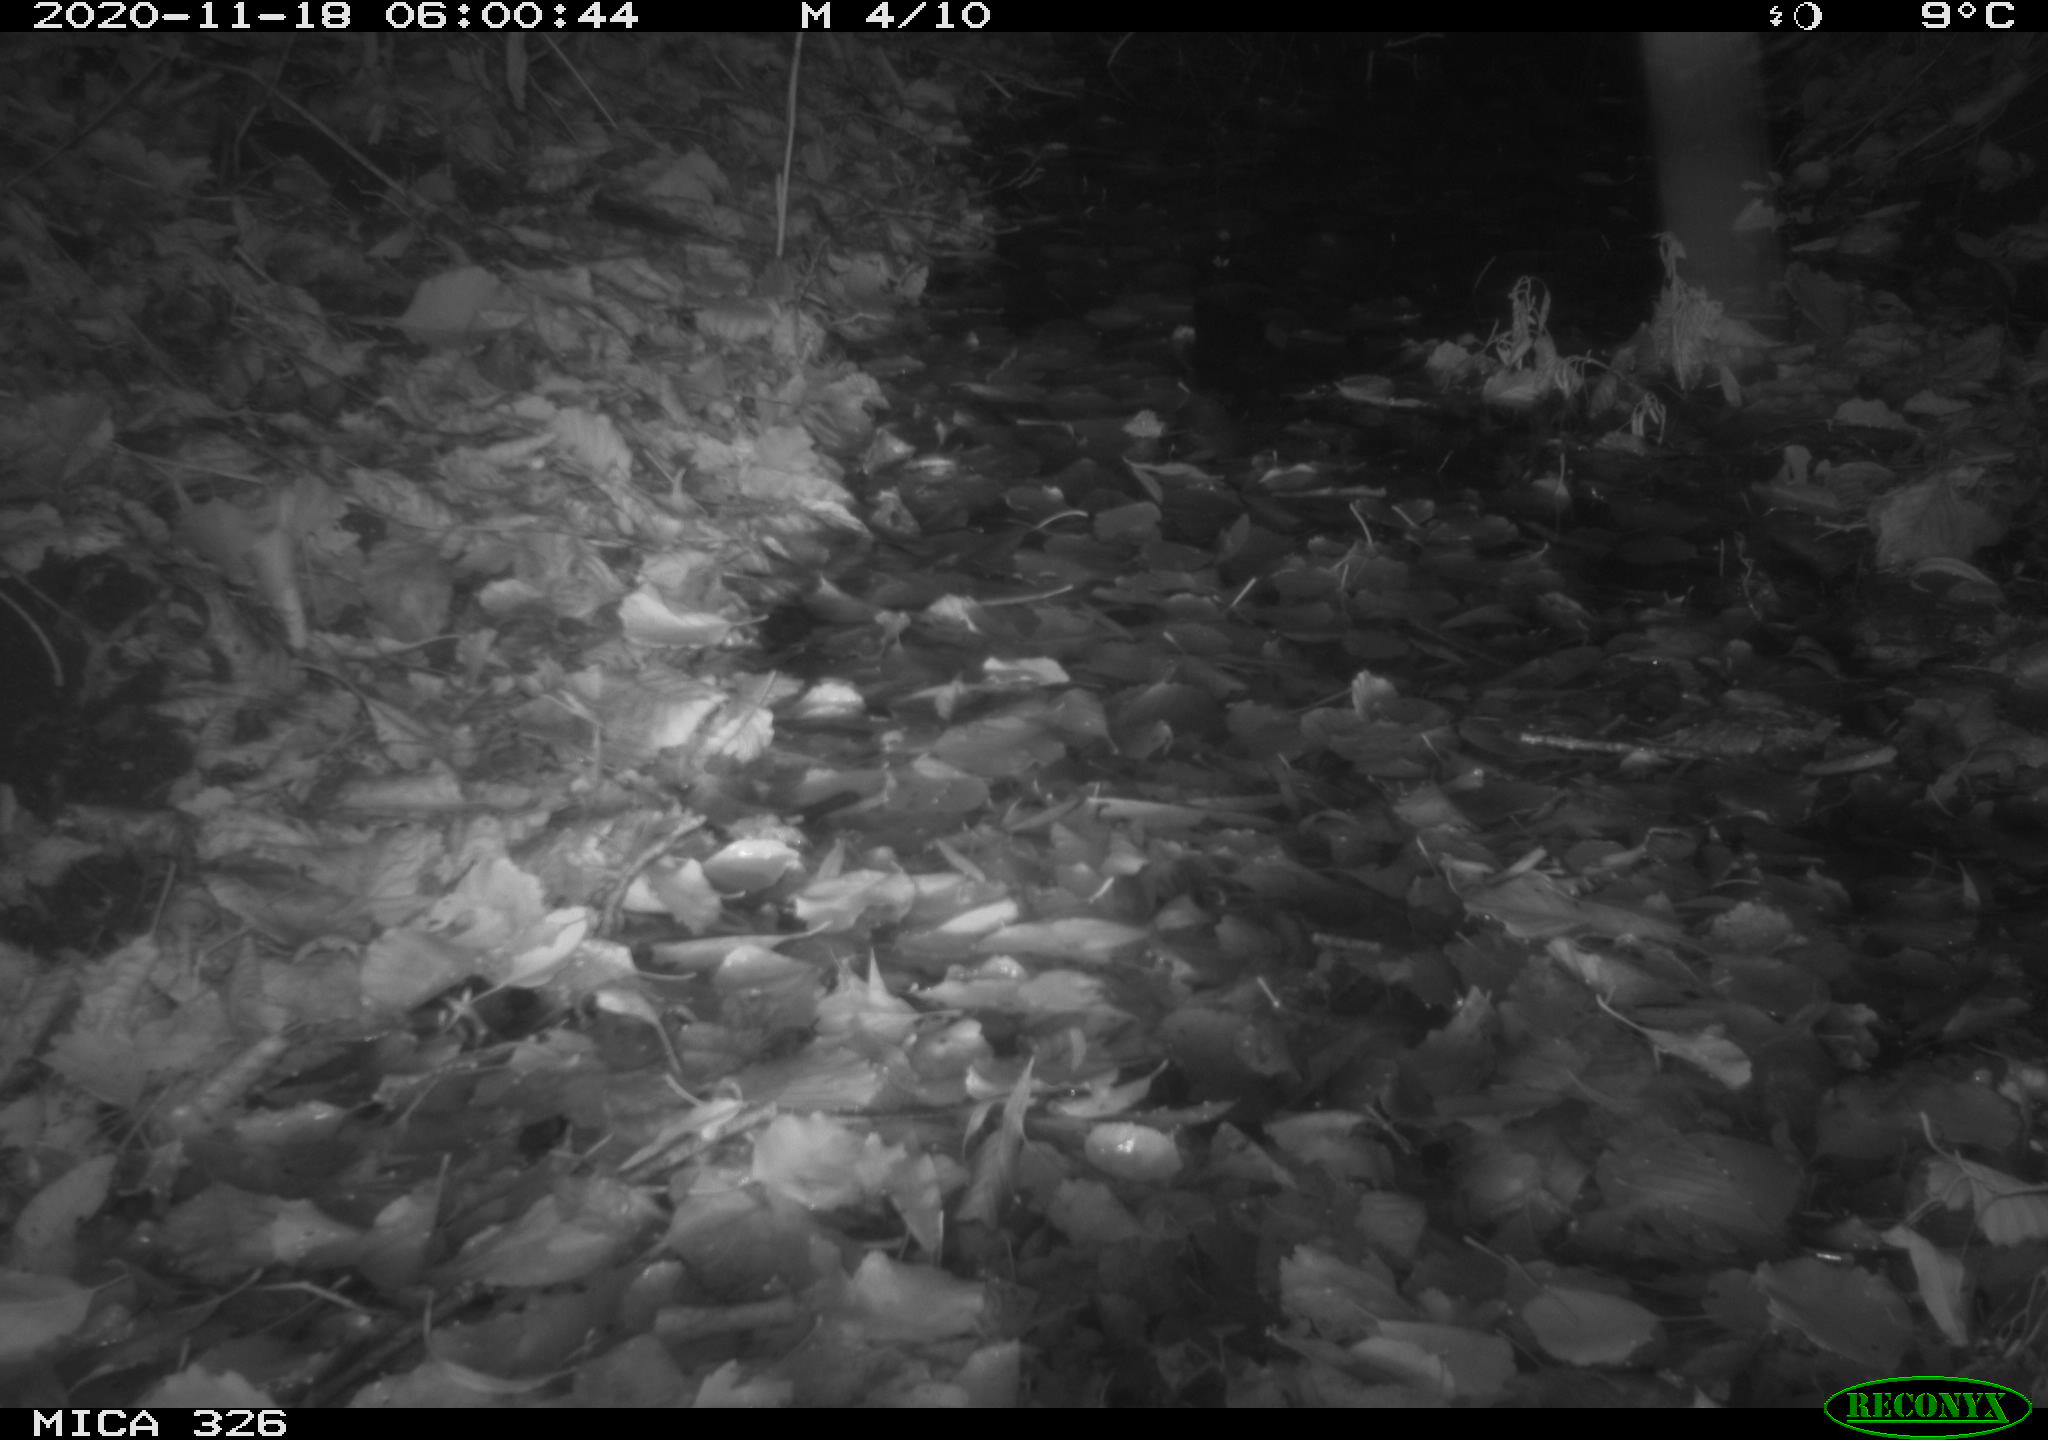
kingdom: Animalia
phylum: Chordata
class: Mammalia
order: Rodentia
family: Muridae
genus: Rattus
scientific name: Rattus norvegicus
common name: Brown rat
